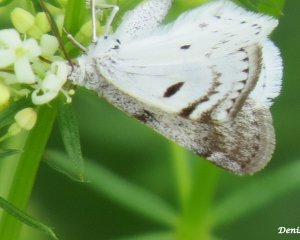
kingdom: Animalia
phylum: Arthropoda
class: Insecta
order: Lepidoptera
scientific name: Lepidoptera
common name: Butterflies
